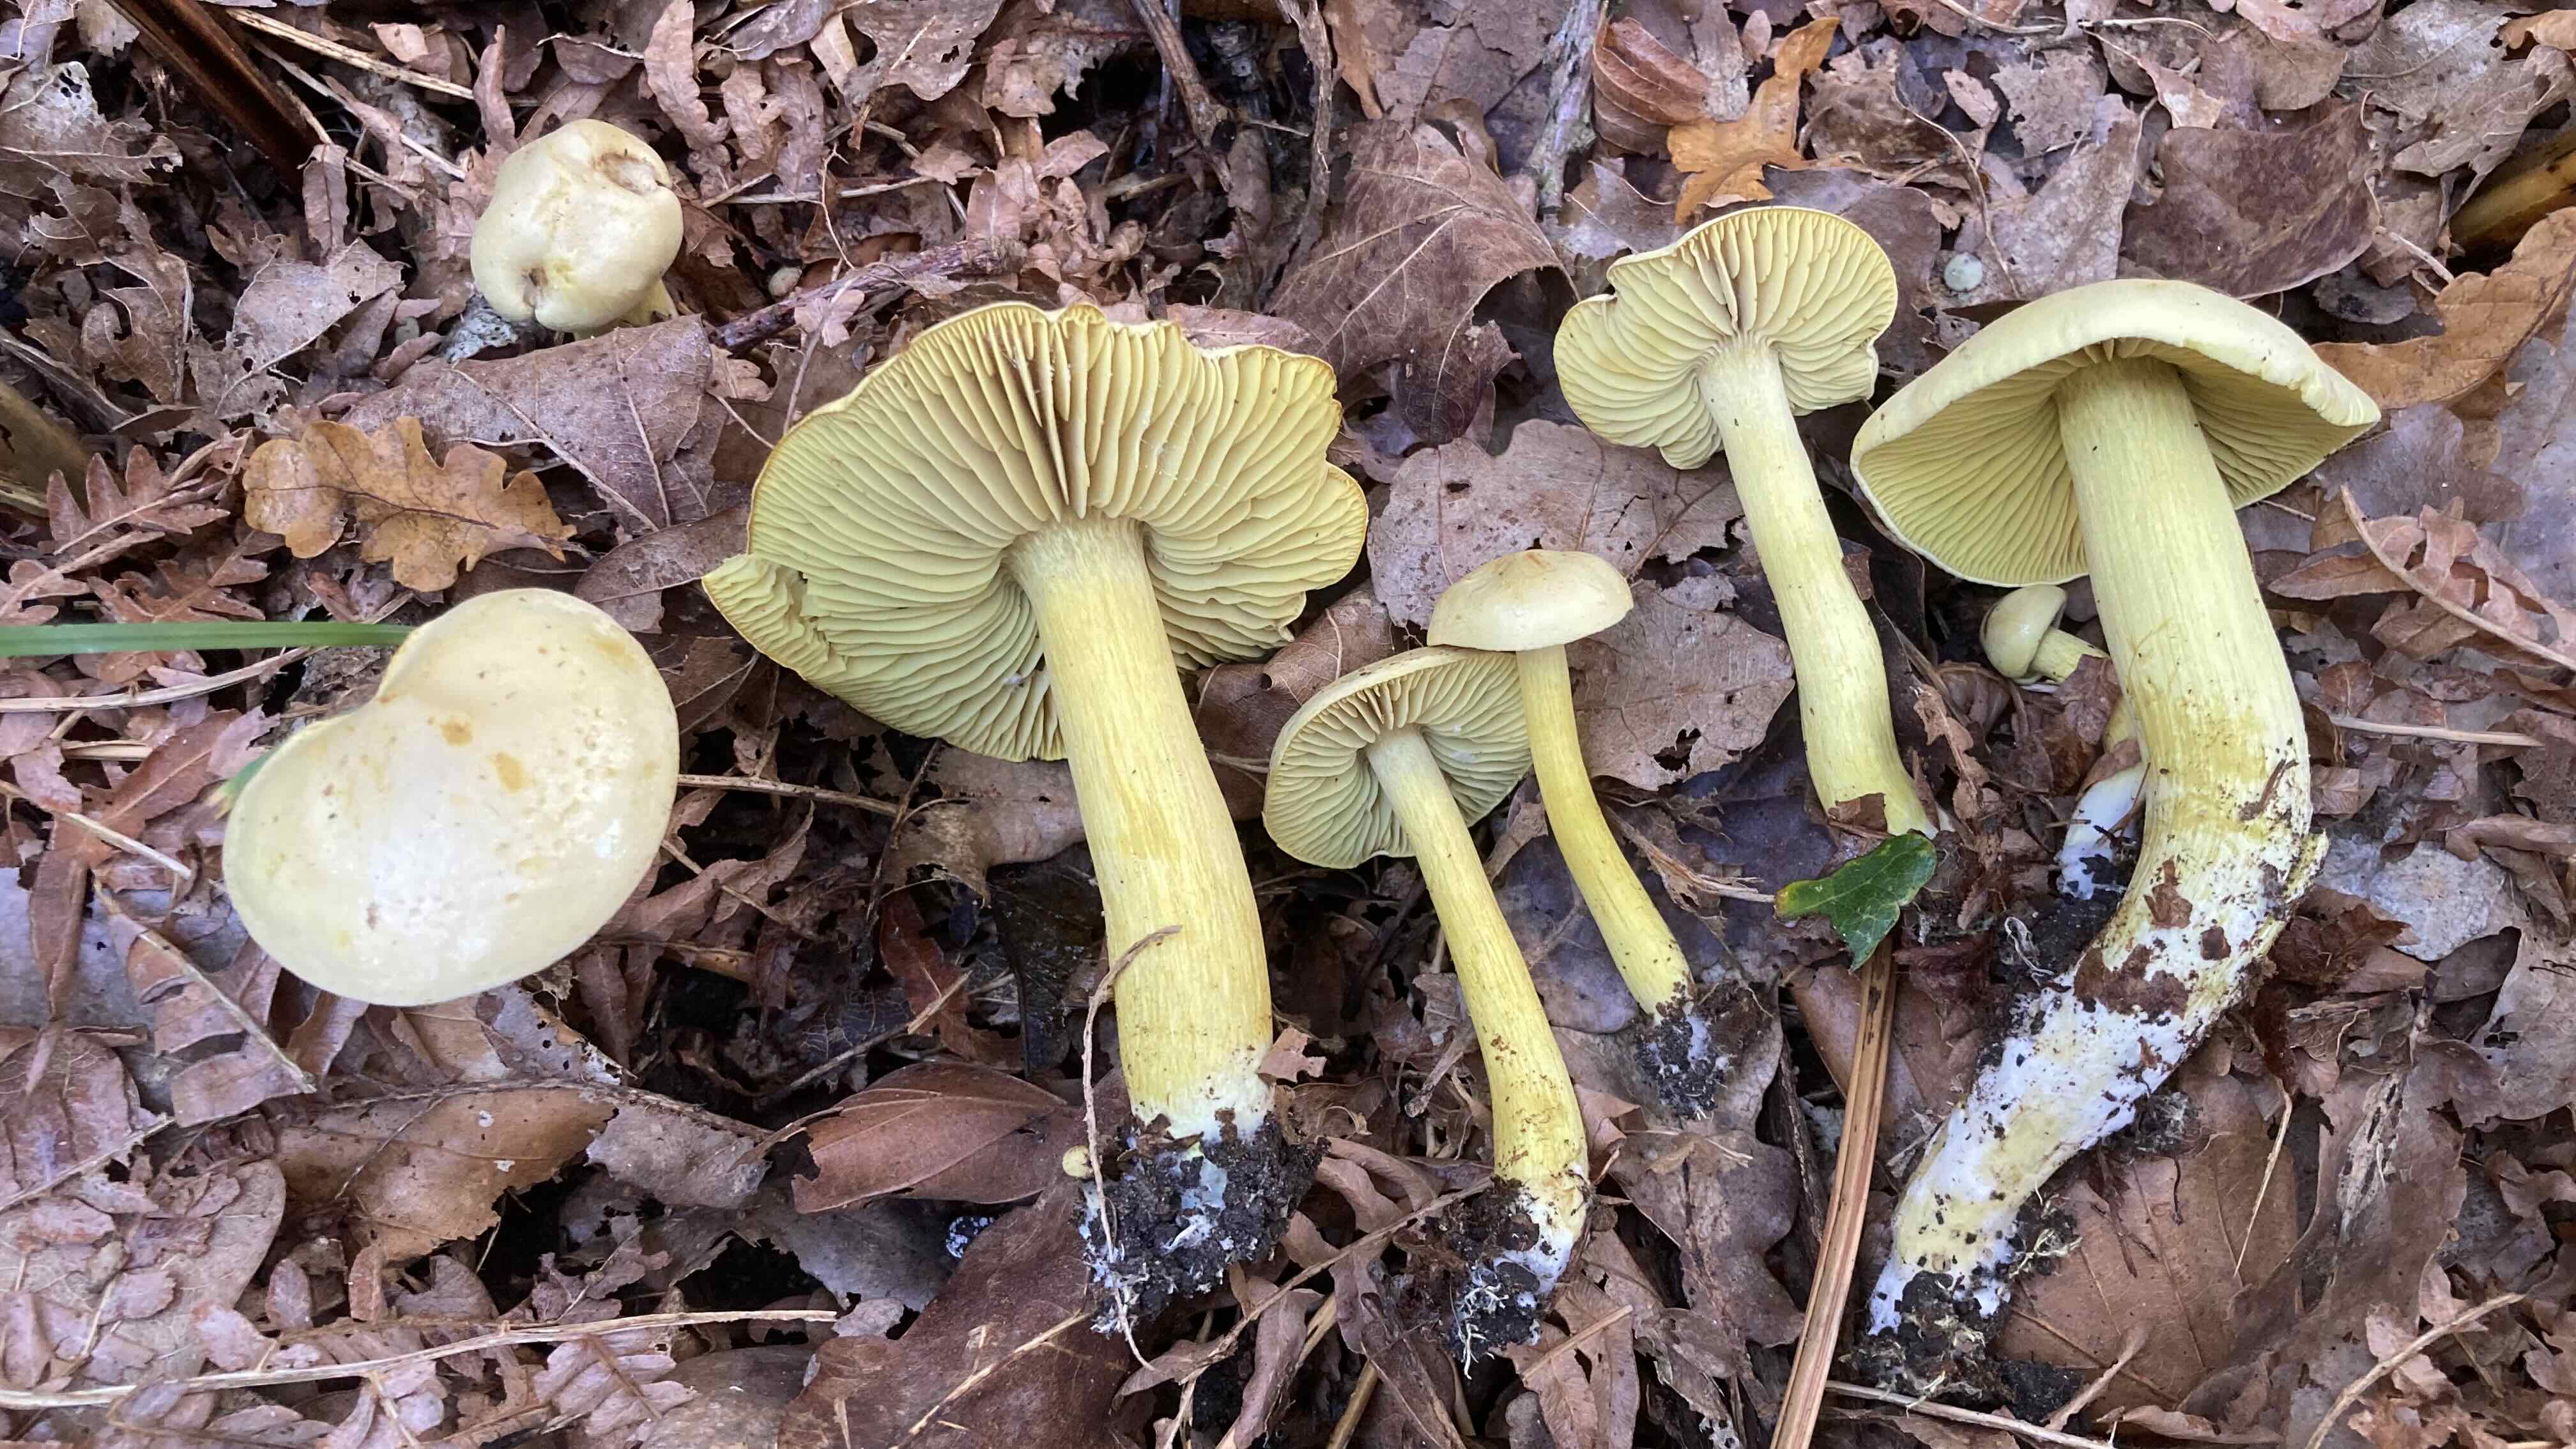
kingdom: Fungi
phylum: Basidiomycota
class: Agaricomycetes
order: Agaricales
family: Tricholomataceae
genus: Tricholoma
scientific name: Tricholoma sulphureum
